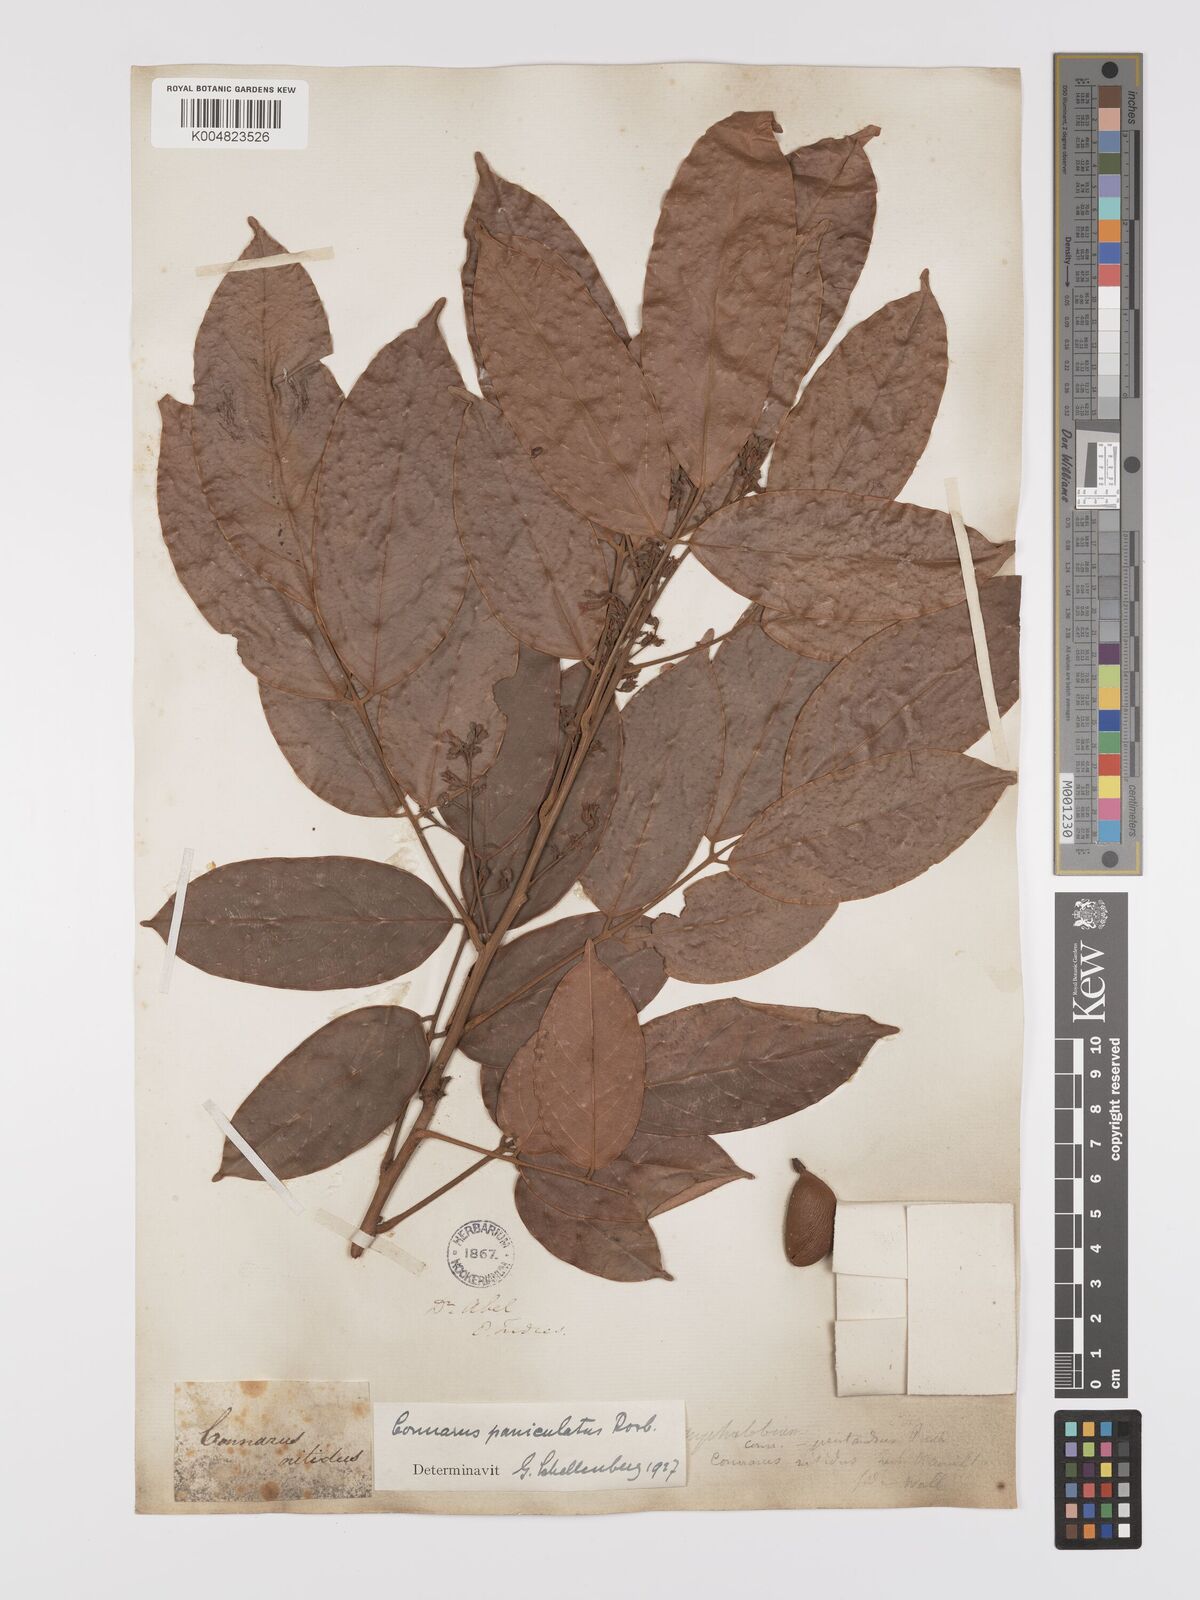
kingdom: Plantae
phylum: Tracheophyta
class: Magnoliopsida
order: Oxalidales
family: Connaraceae
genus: Connarus
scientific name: Connarus paniculatus
